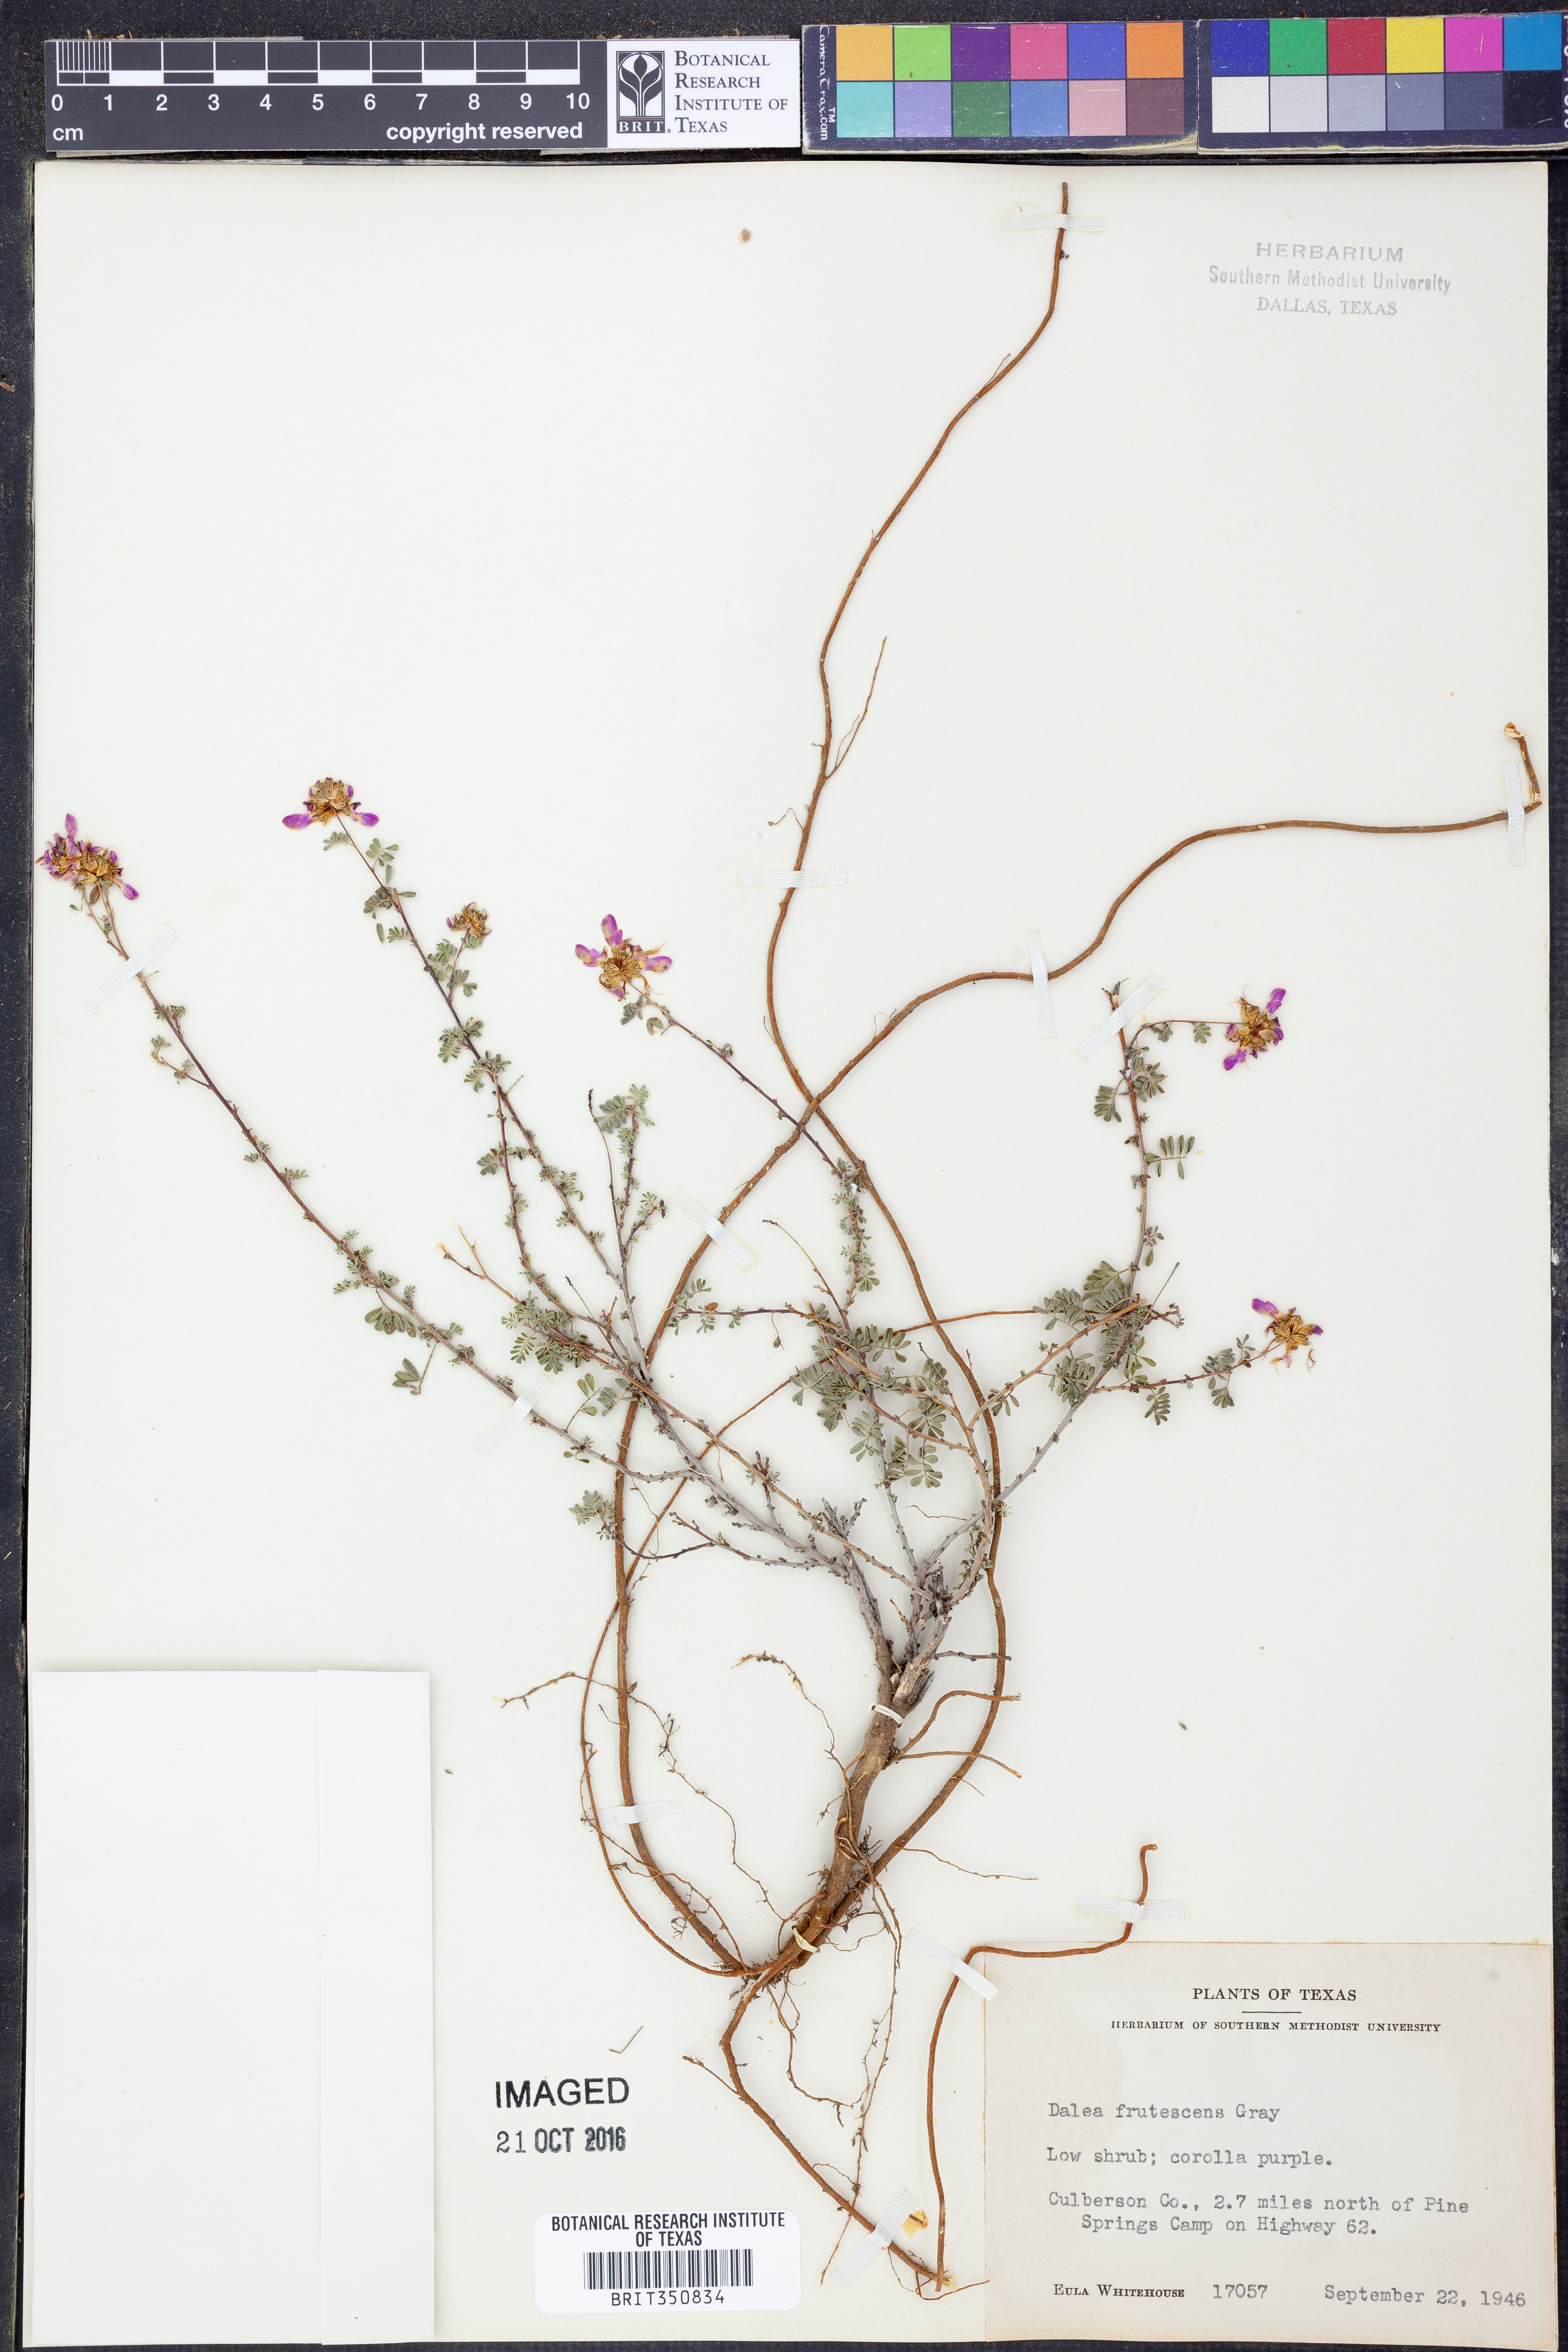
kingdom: Plantae
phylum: Tracheophyta
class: Magnoliopsida
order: Fabales
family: Fabaceae
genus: Dalea
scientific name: Dalea frutescens
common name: Black dalea
